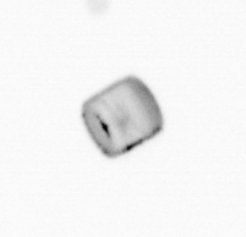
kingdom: Chromista
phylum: Ochrophyta
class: Bacillariophyceae
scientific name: Bacillariophyceae
